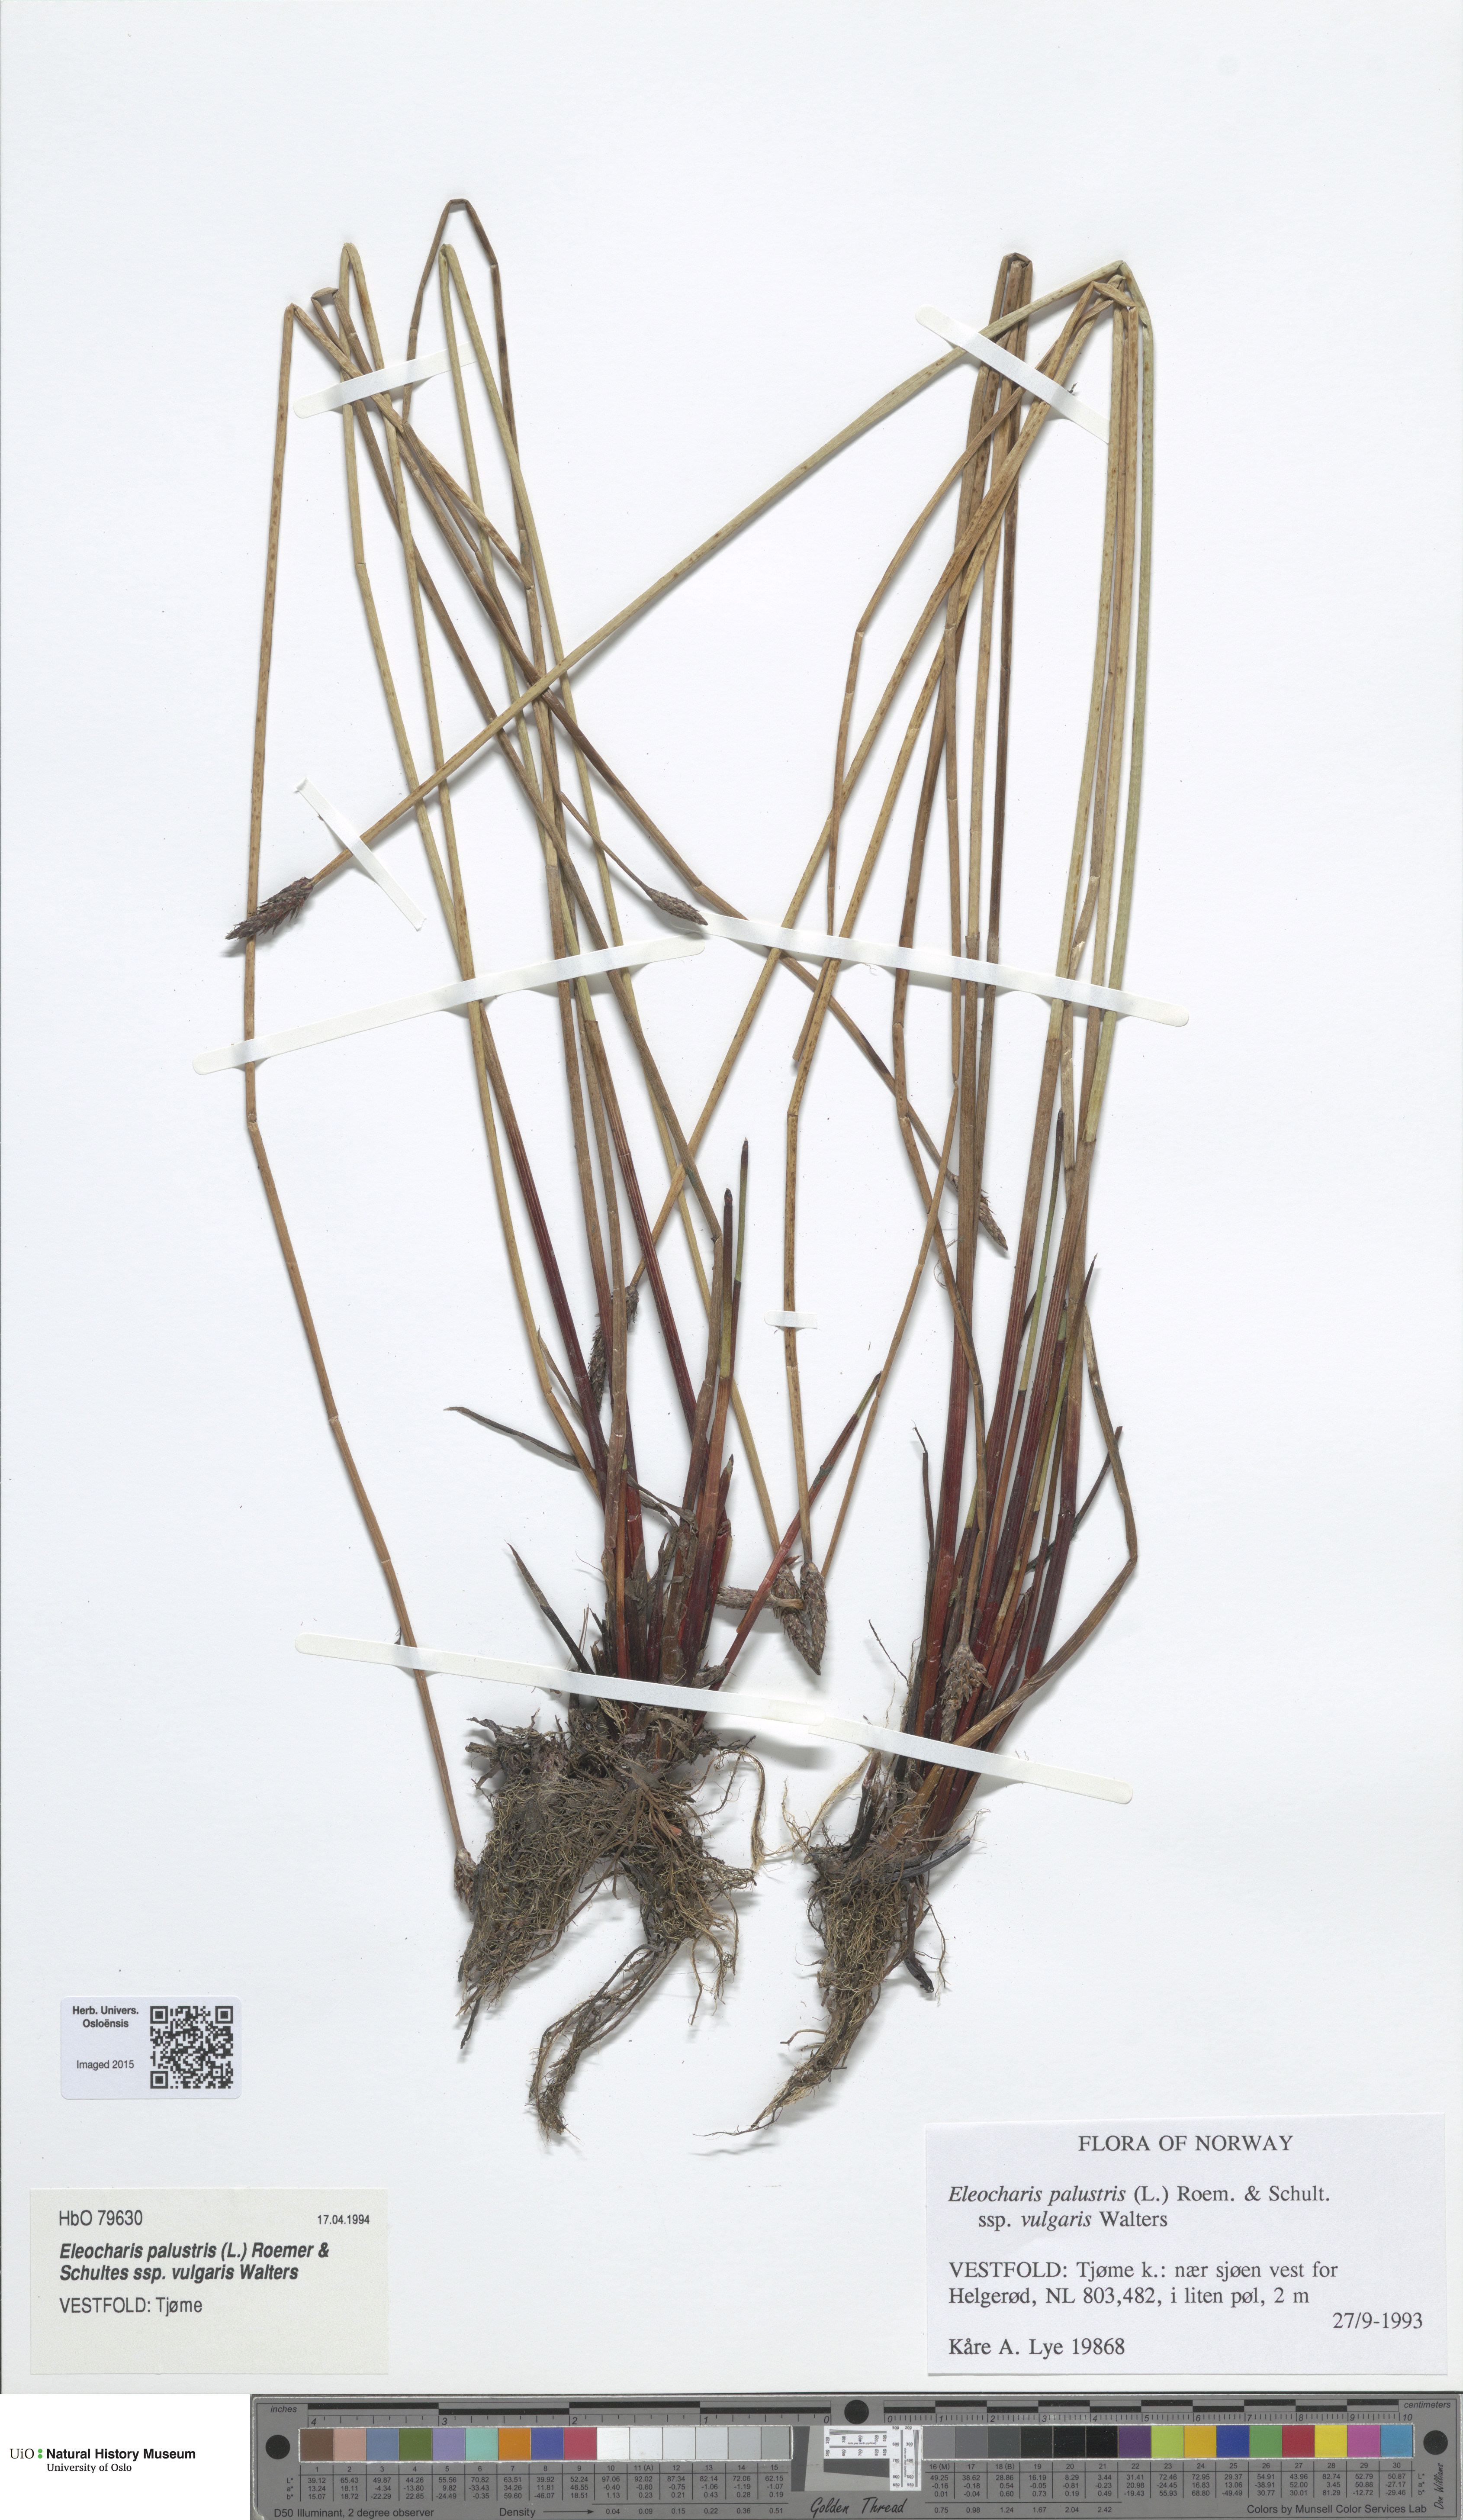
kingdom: Plantae
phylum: Tracheophyta
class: Liliopsida
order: Poales
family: Cyperaceae
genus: Eleocharis
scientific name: Eleocharis palustris
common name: Common spike-rush
